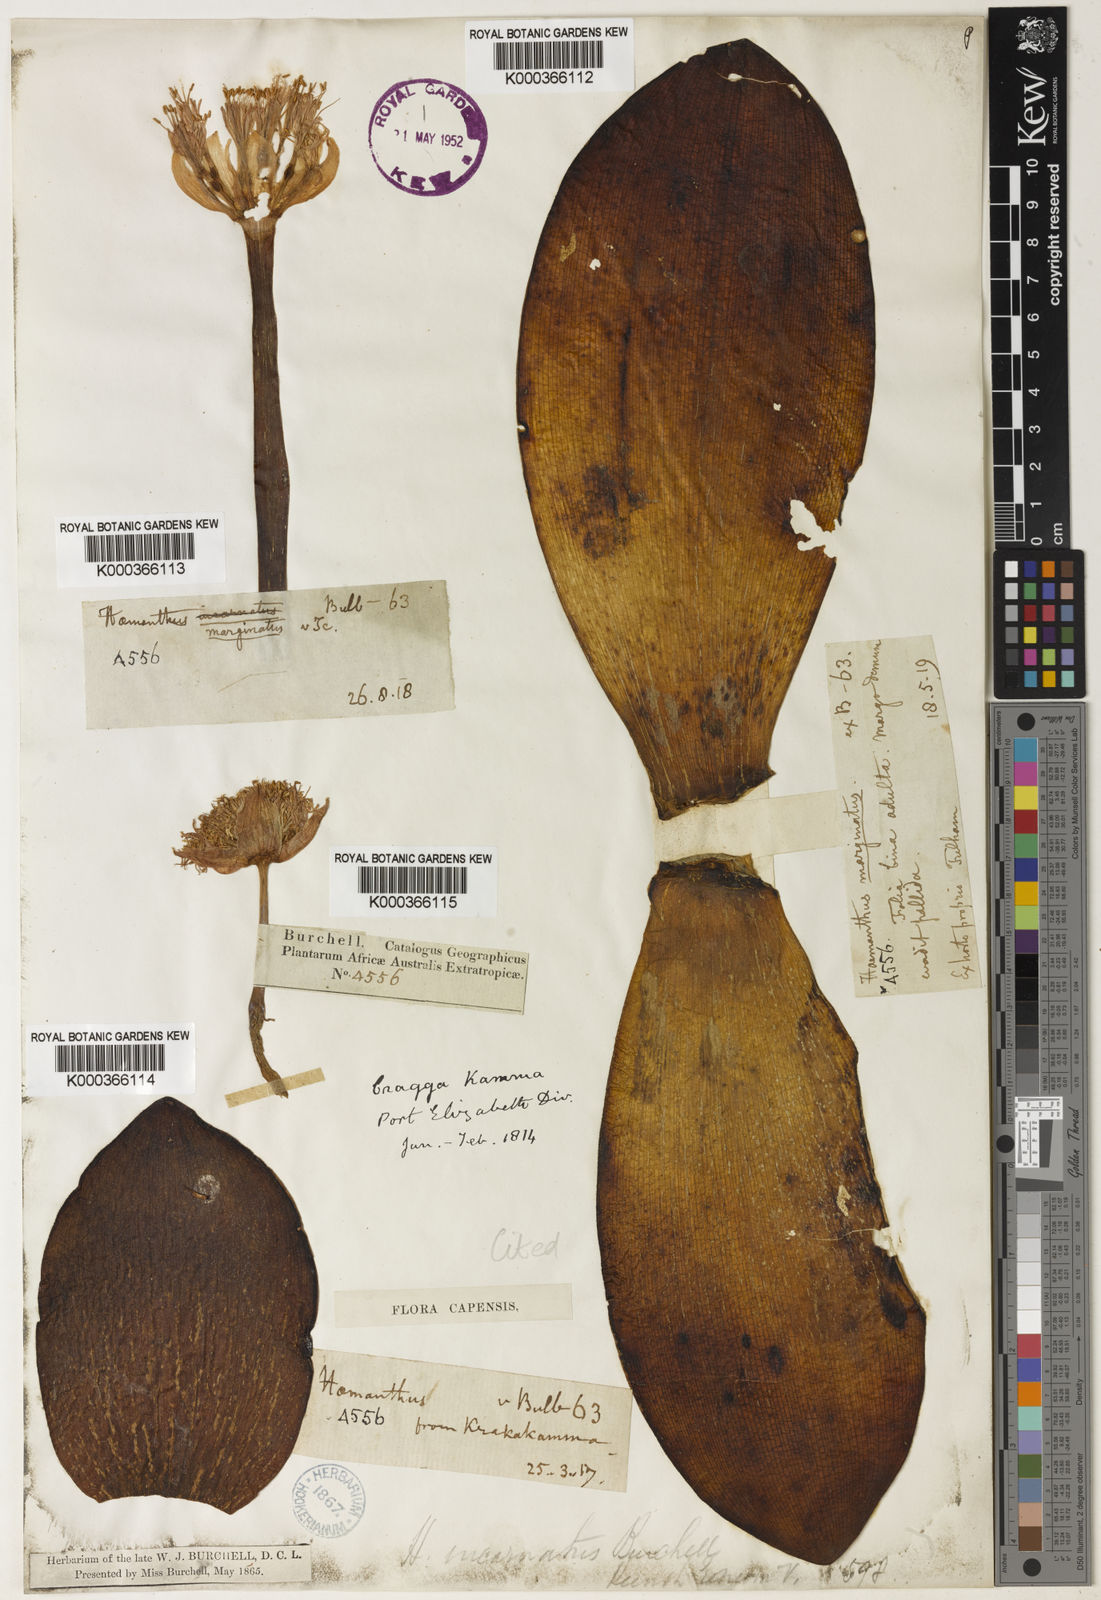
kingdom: Plantae
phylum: Tracheophyta
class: Liliopsida
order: Asparagales
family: Amaryllidaceae
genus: Haemanthus
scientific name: Haemanthus sanguineus
